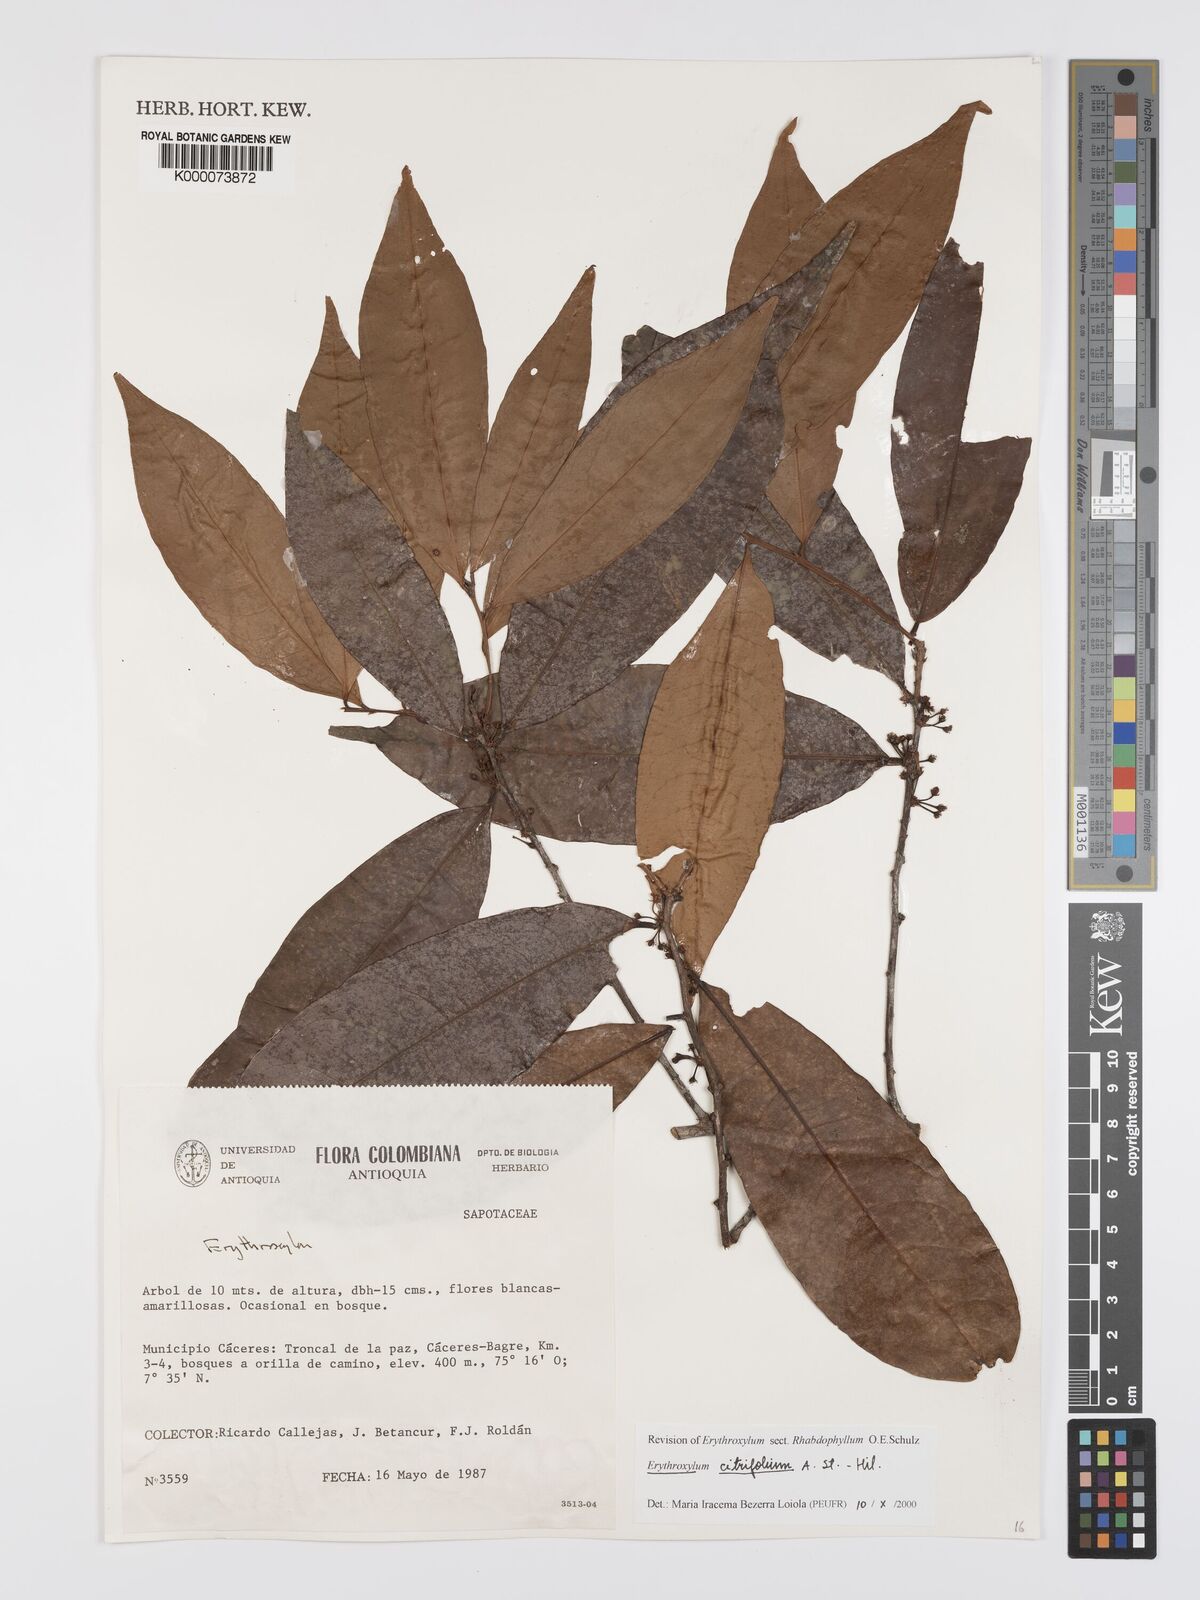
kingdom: Plantae
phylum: Tracheophyta
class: Magnoliopsida
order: Malpighiales
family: Erythroxylaceae
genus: Erythroxylum
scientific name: Erythroxylum citrifolium
